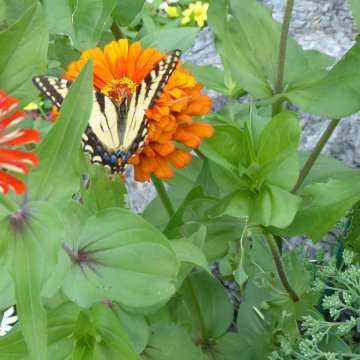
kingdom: Animalia
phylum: Arthropoda
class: Insecta
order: Lepidoptera
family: Papilionidae
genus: Pterourus
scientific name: Pterourus
